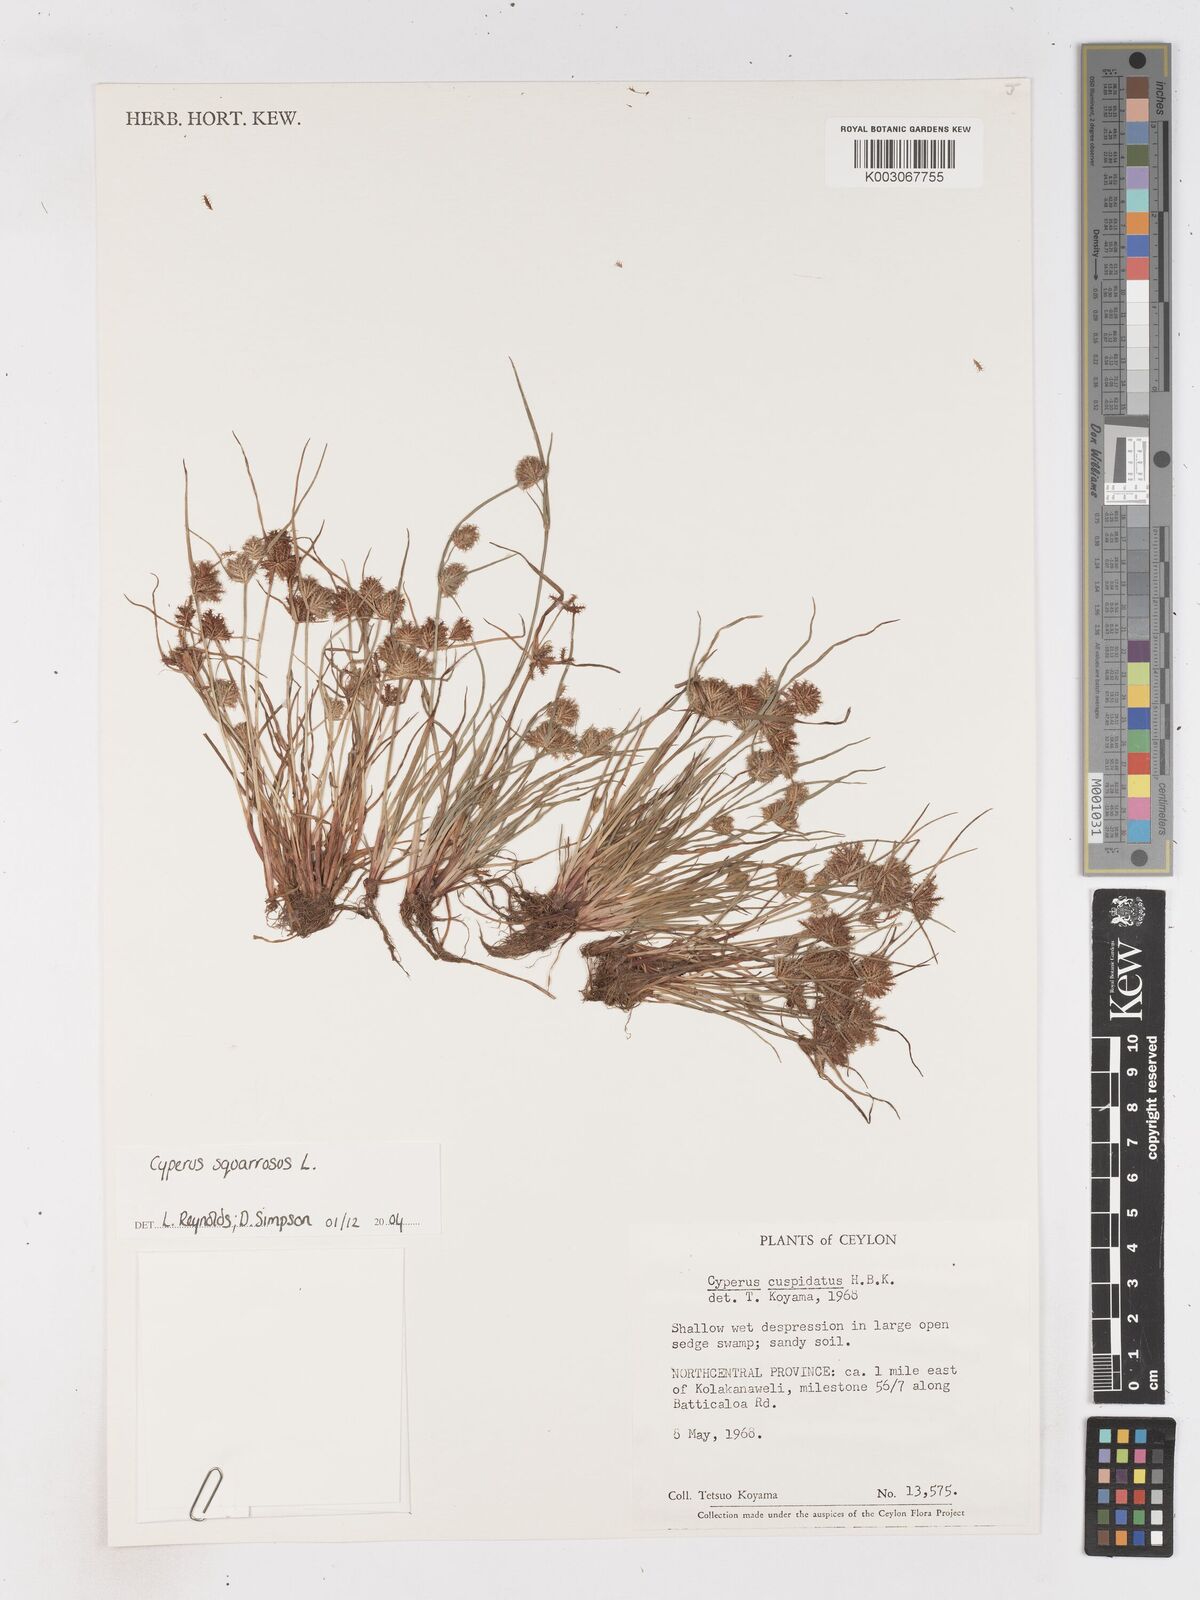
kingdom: Plantae
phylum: Tracheophyta
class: Liliopsida
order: Poales
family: Cyperaceae
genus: Cyperus
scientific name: Cyperus squarrosus
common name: Awned cyperus
